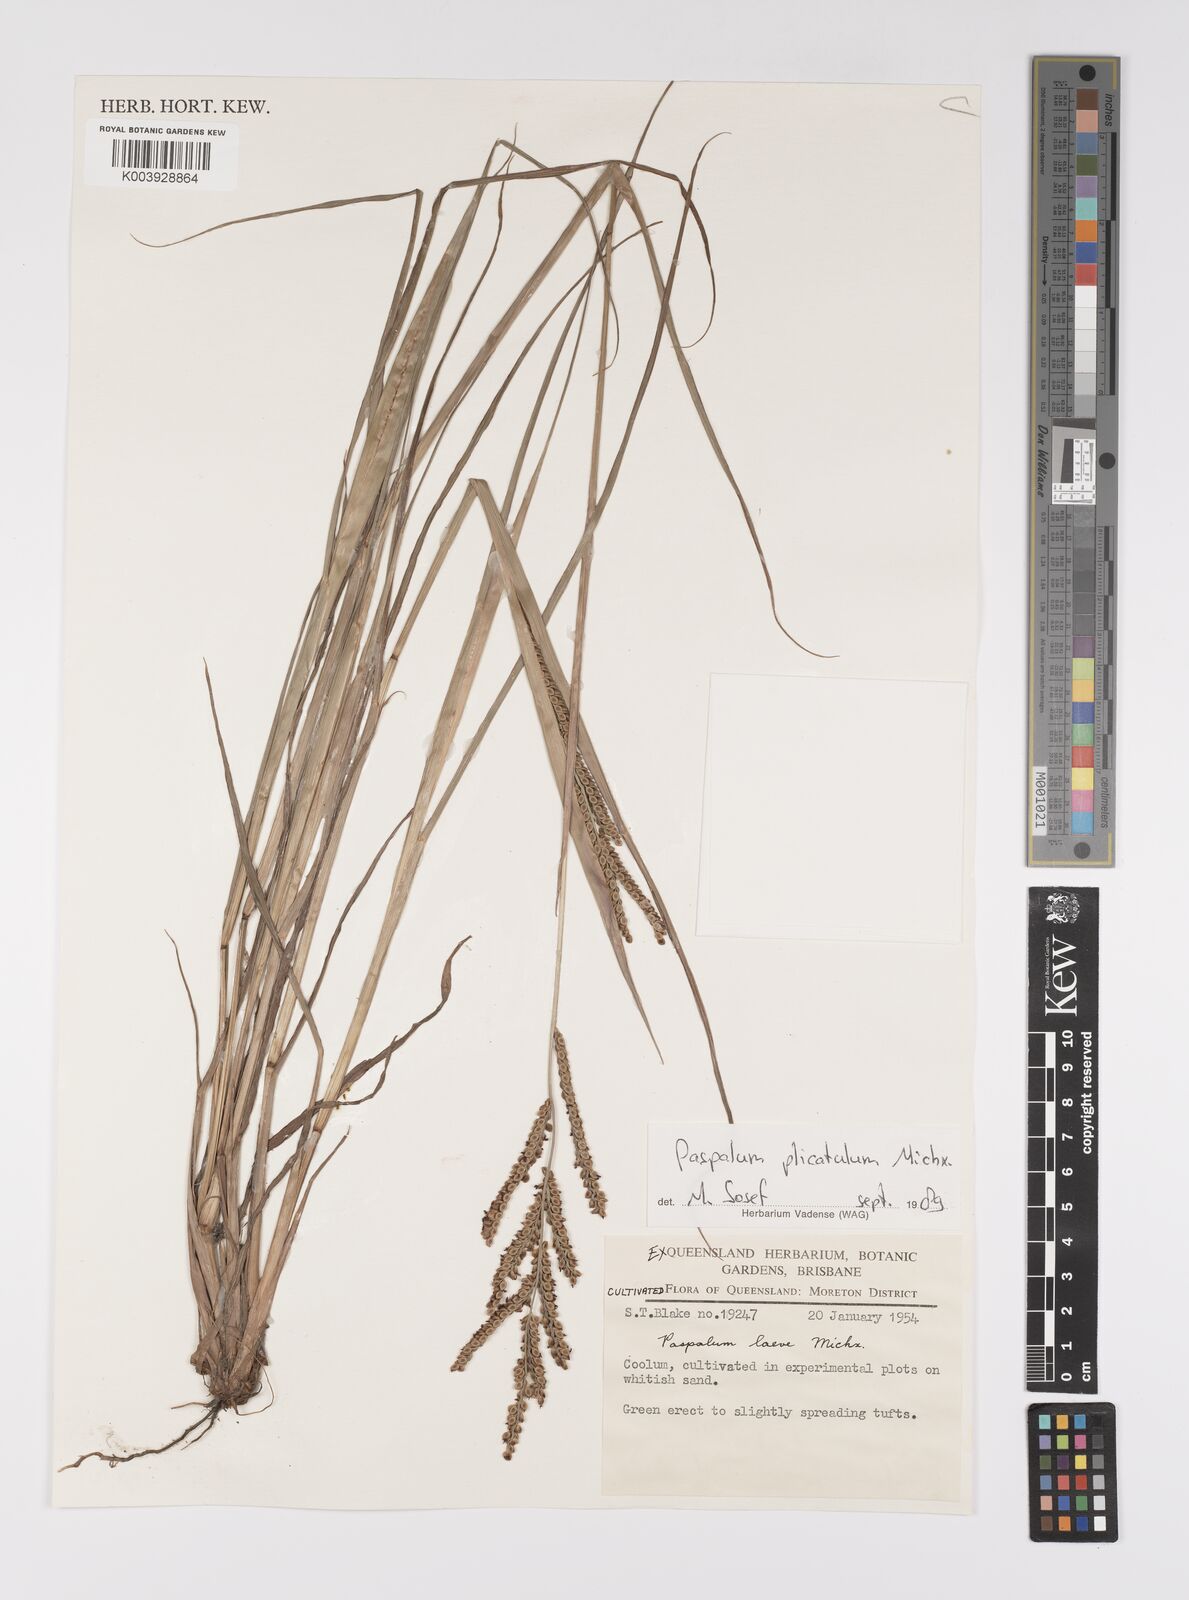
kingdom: Plantae
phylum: Tracheophyta
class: Liliopsida
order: Poales
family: Poaceae
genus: Paspalum
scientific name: Paspalum laeve
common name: Field paspalum
